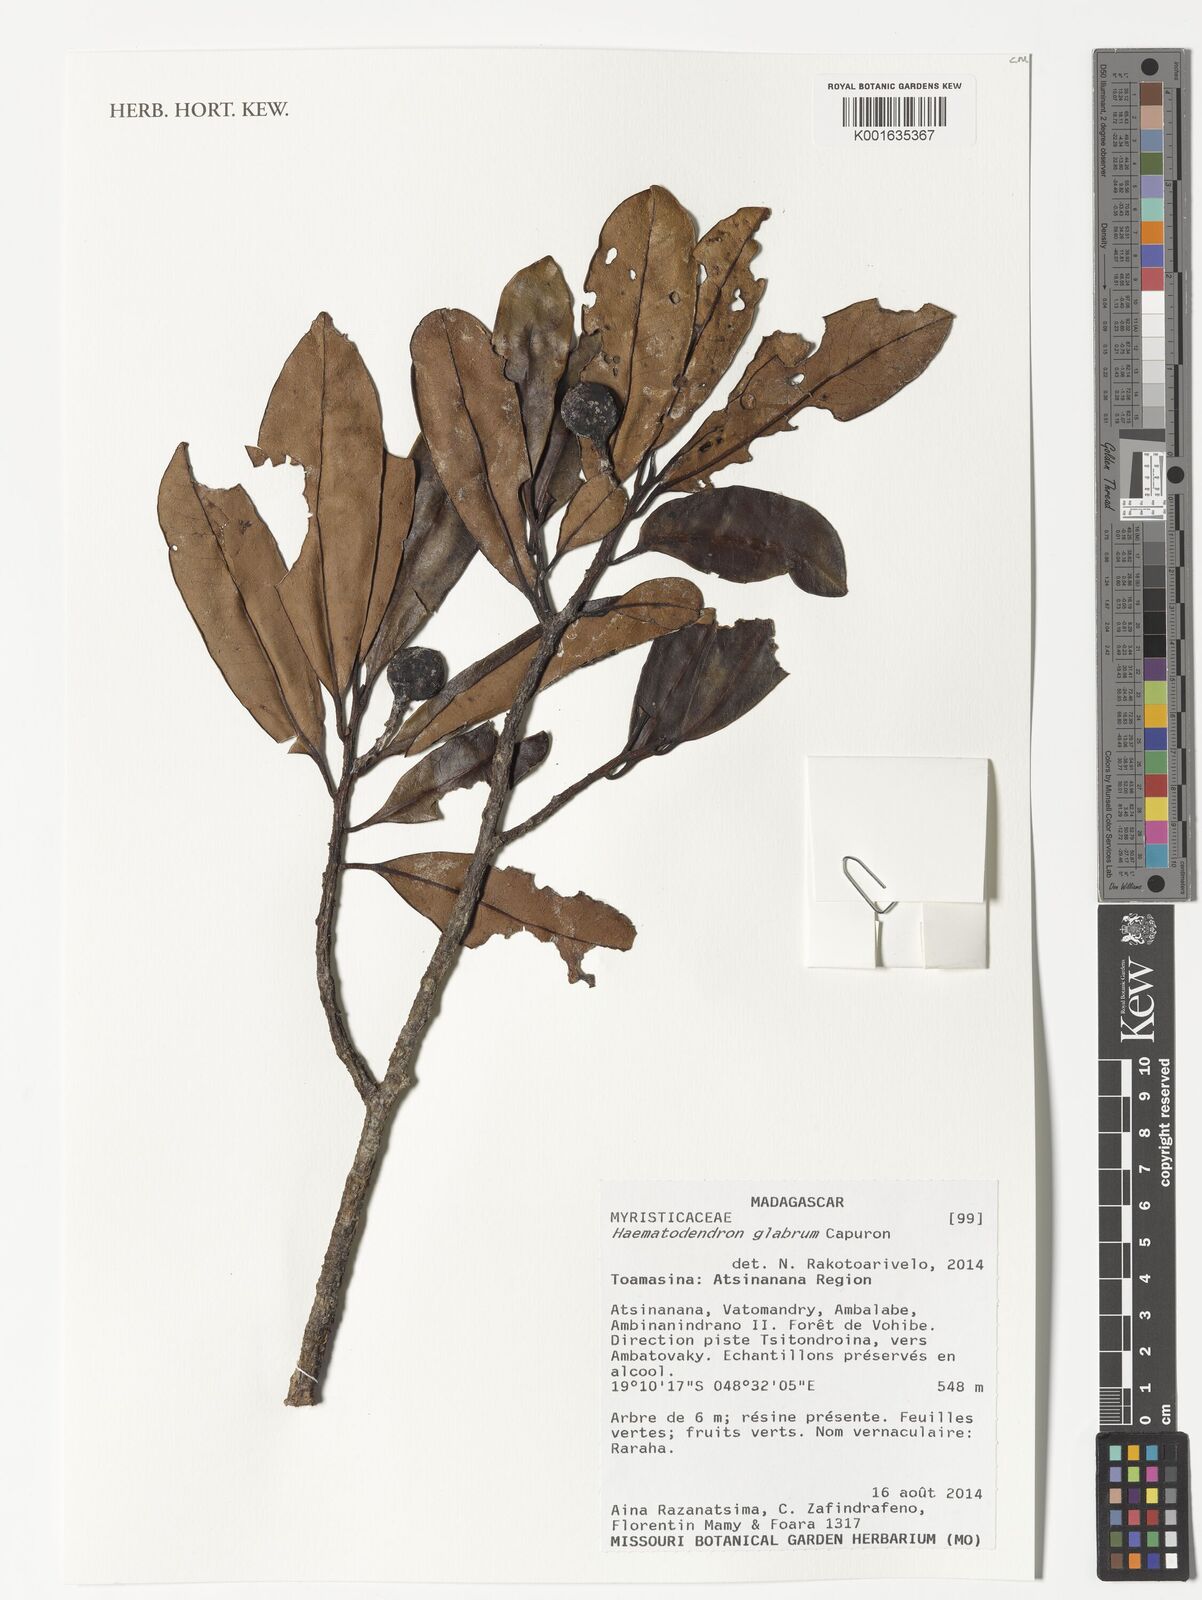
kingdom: Plantae
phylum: Tracheophyta
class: Magnoliopsida
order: Magnoliales
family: Myristicaceae
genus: Haematodendron
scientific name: Haematodendron glabrum
